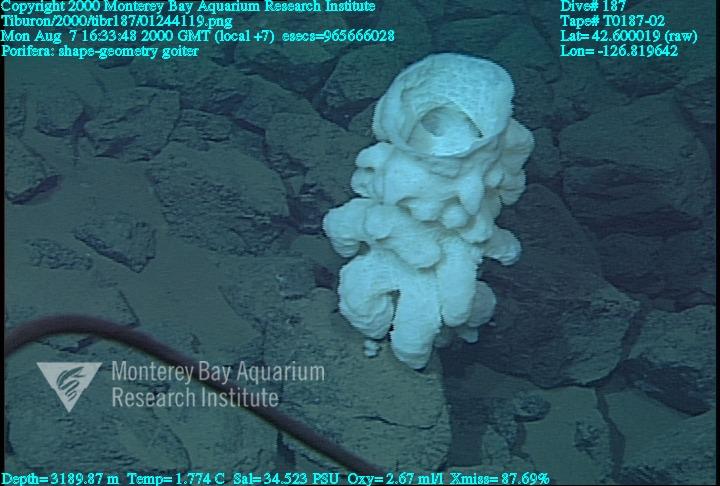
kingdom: Animalia
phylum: Porifera
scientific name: Porifera
